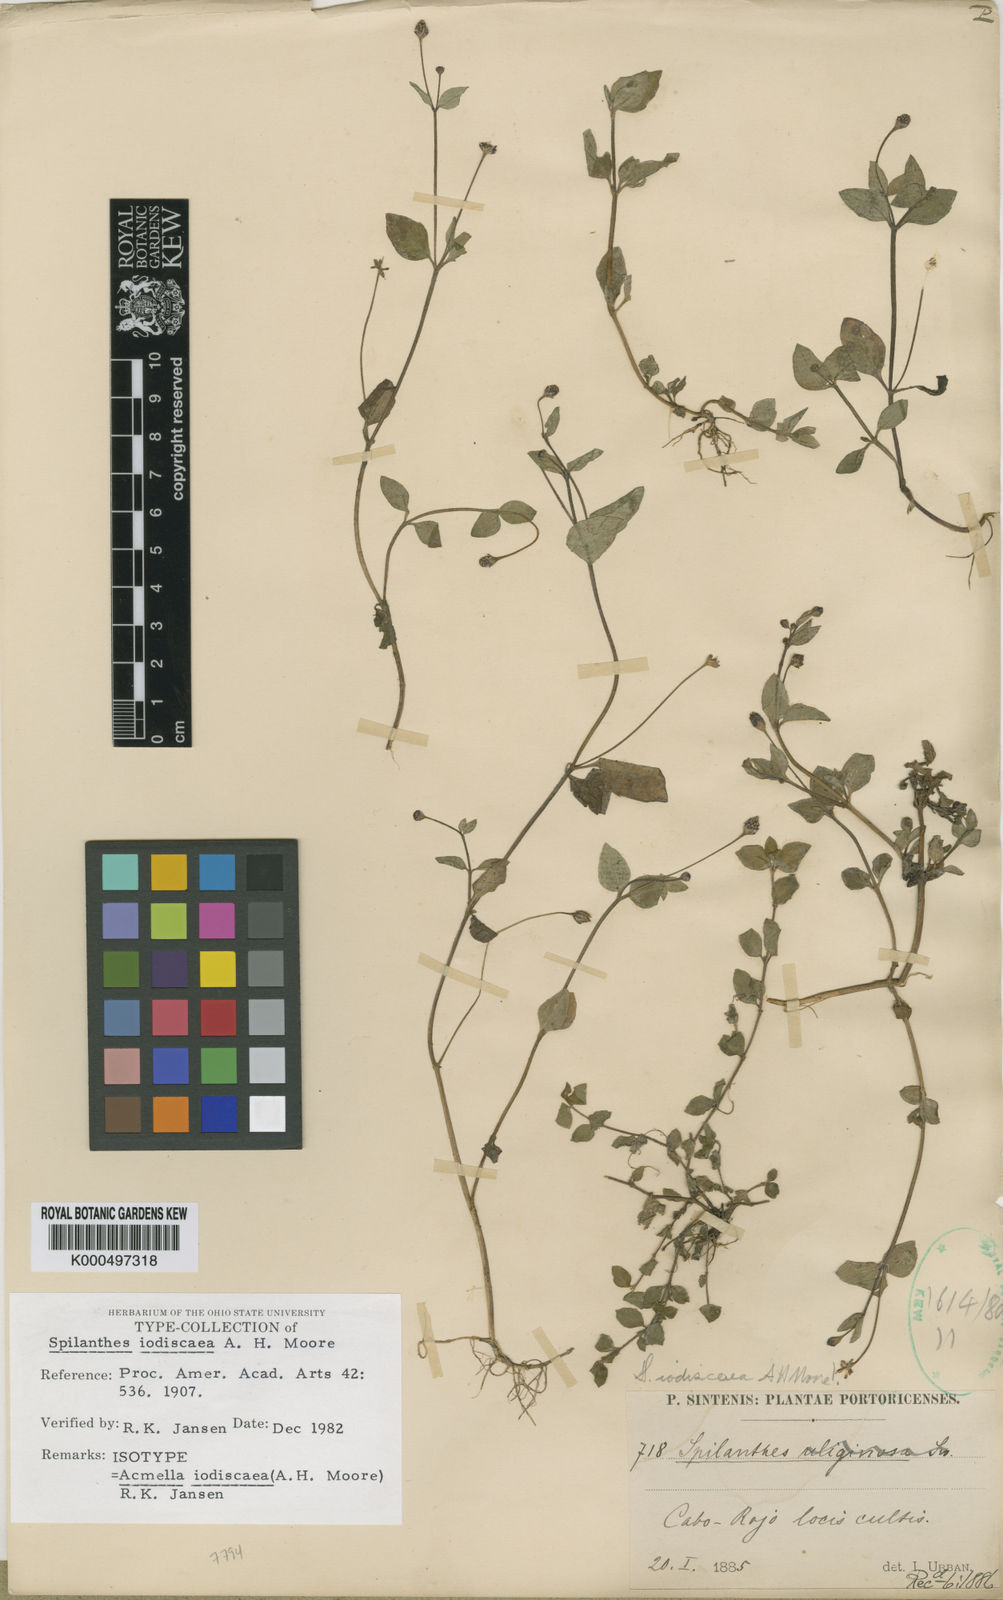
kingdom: Plantae
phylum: Tracheophyta
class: Magnoliopsida
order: Asterales
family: Asteraceae
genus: Acmella
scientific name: Acmella iodiscaea
